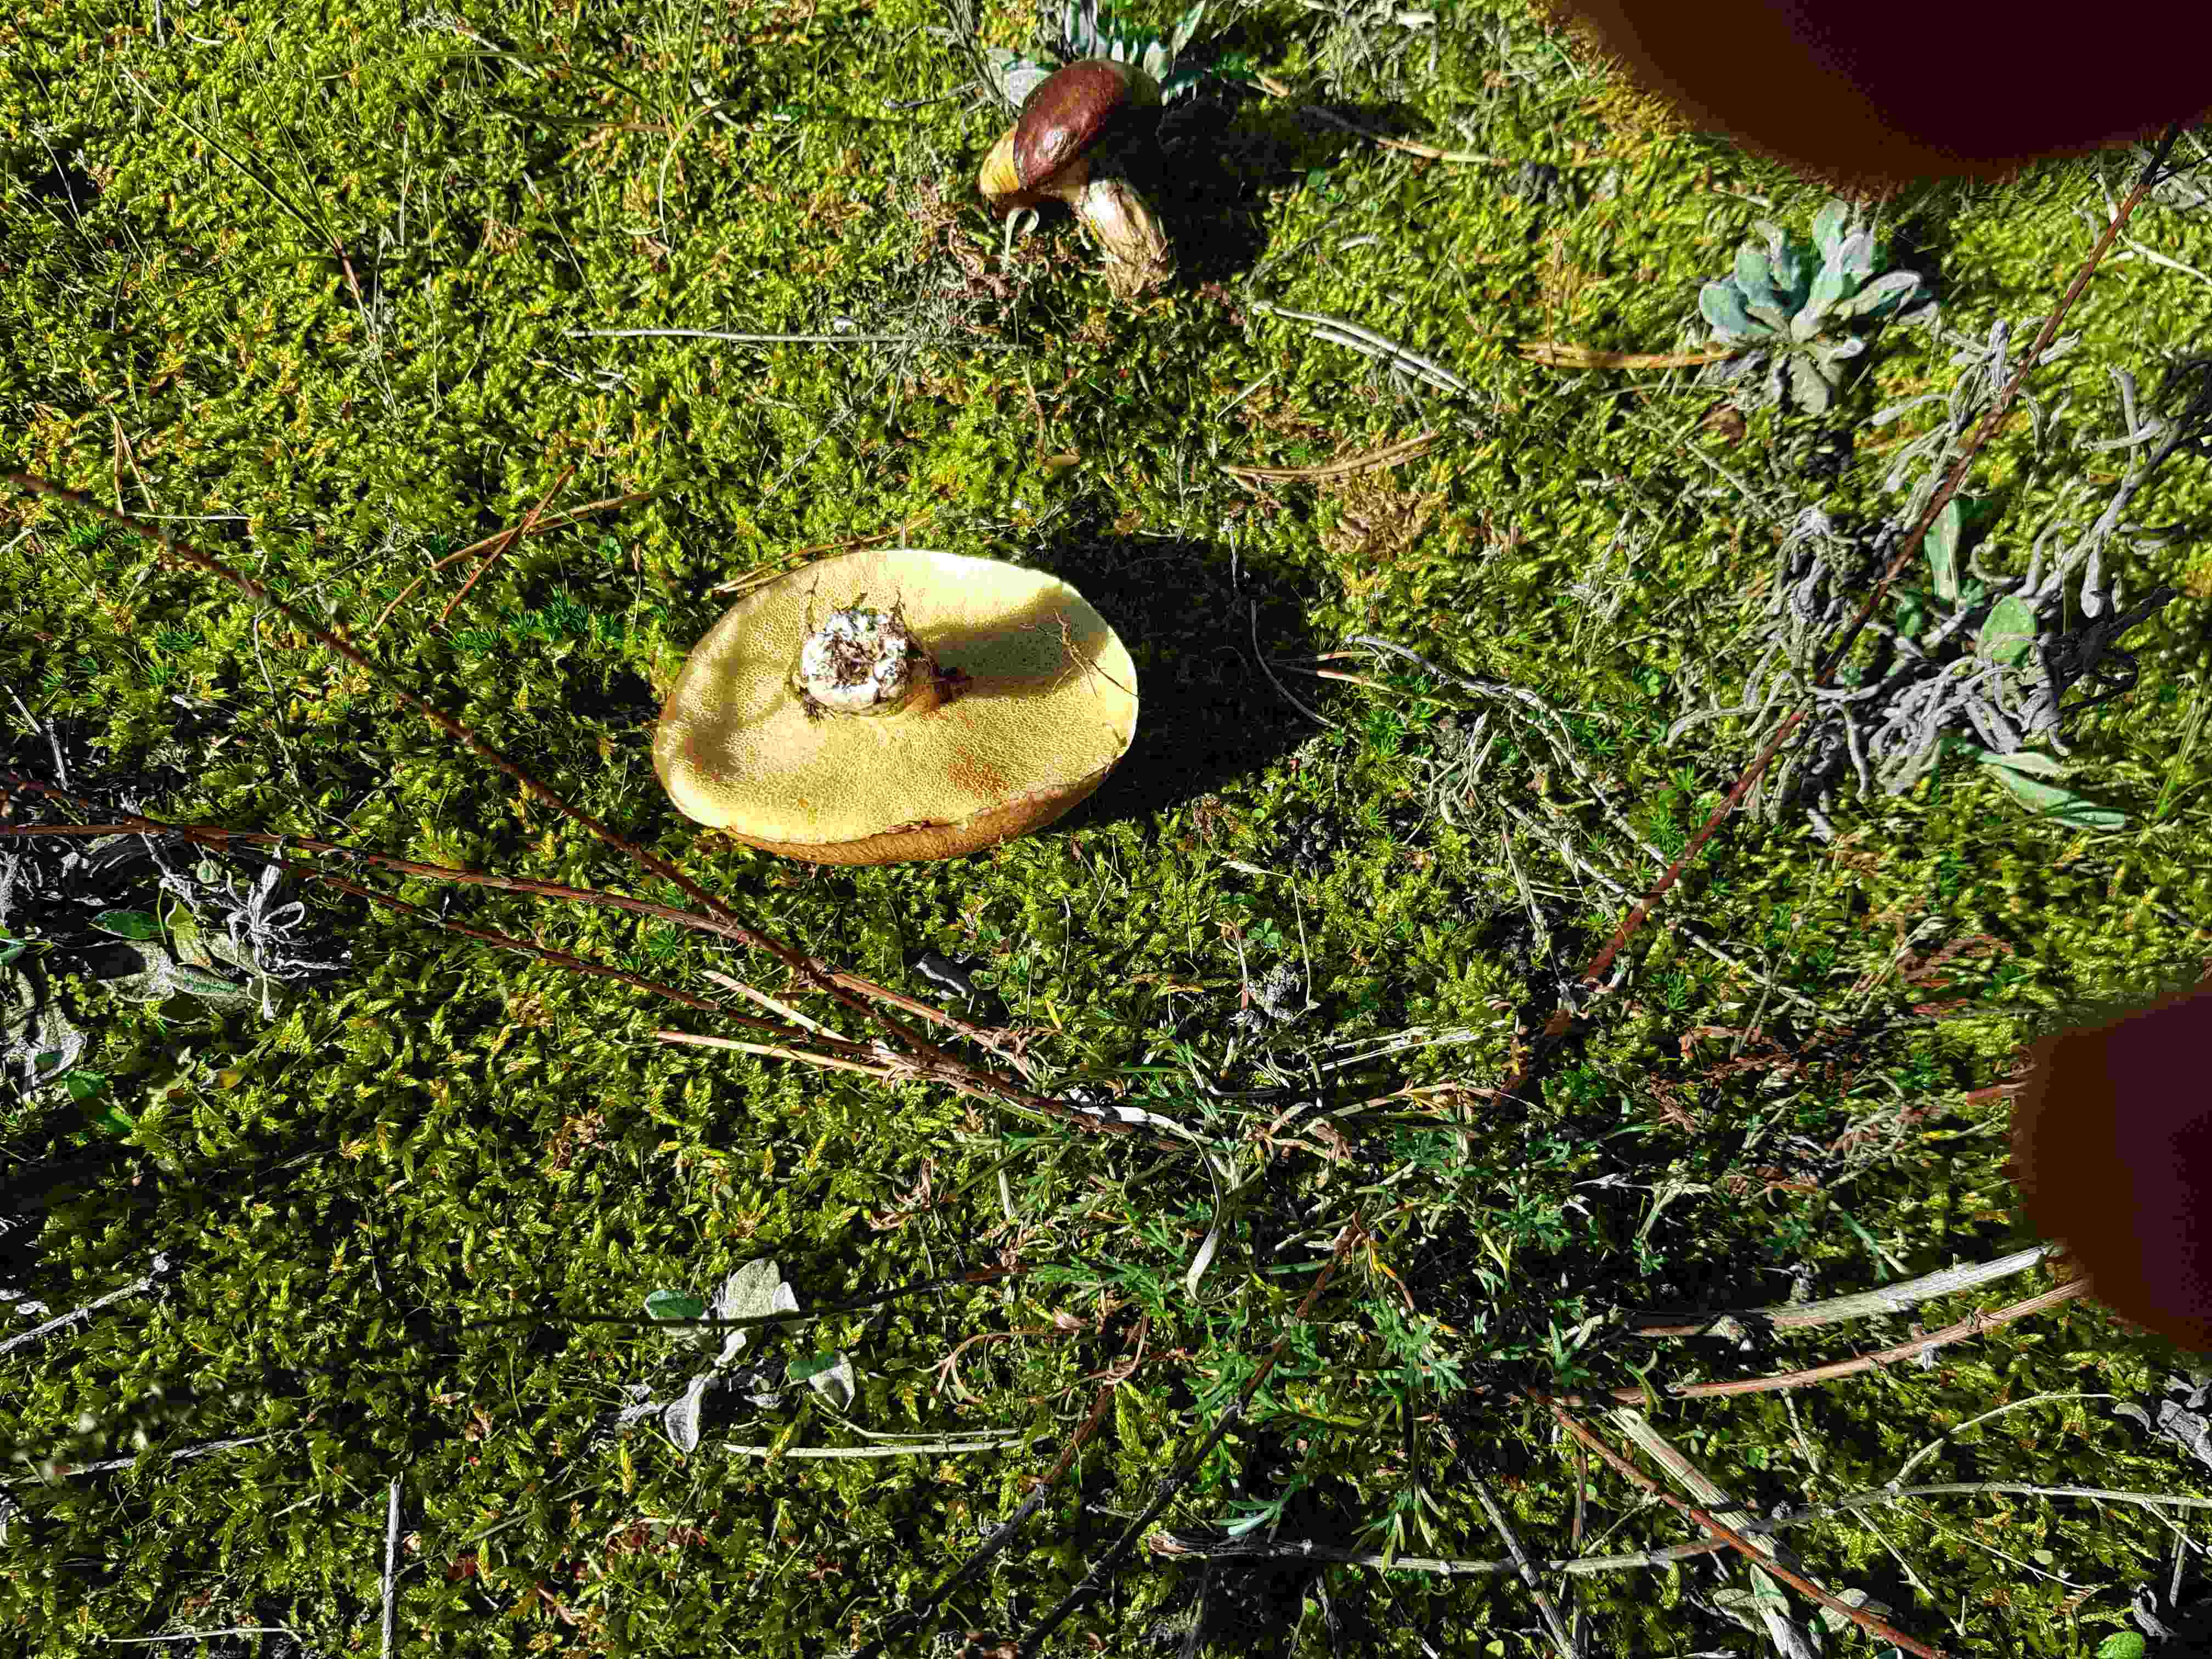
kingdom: Fungi
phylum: Basidiomycota
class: Agaricomycetes
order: Boletales
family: Suillaceae
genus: Suillus
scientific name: Suillus luteus
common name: brungul slimrørhat
